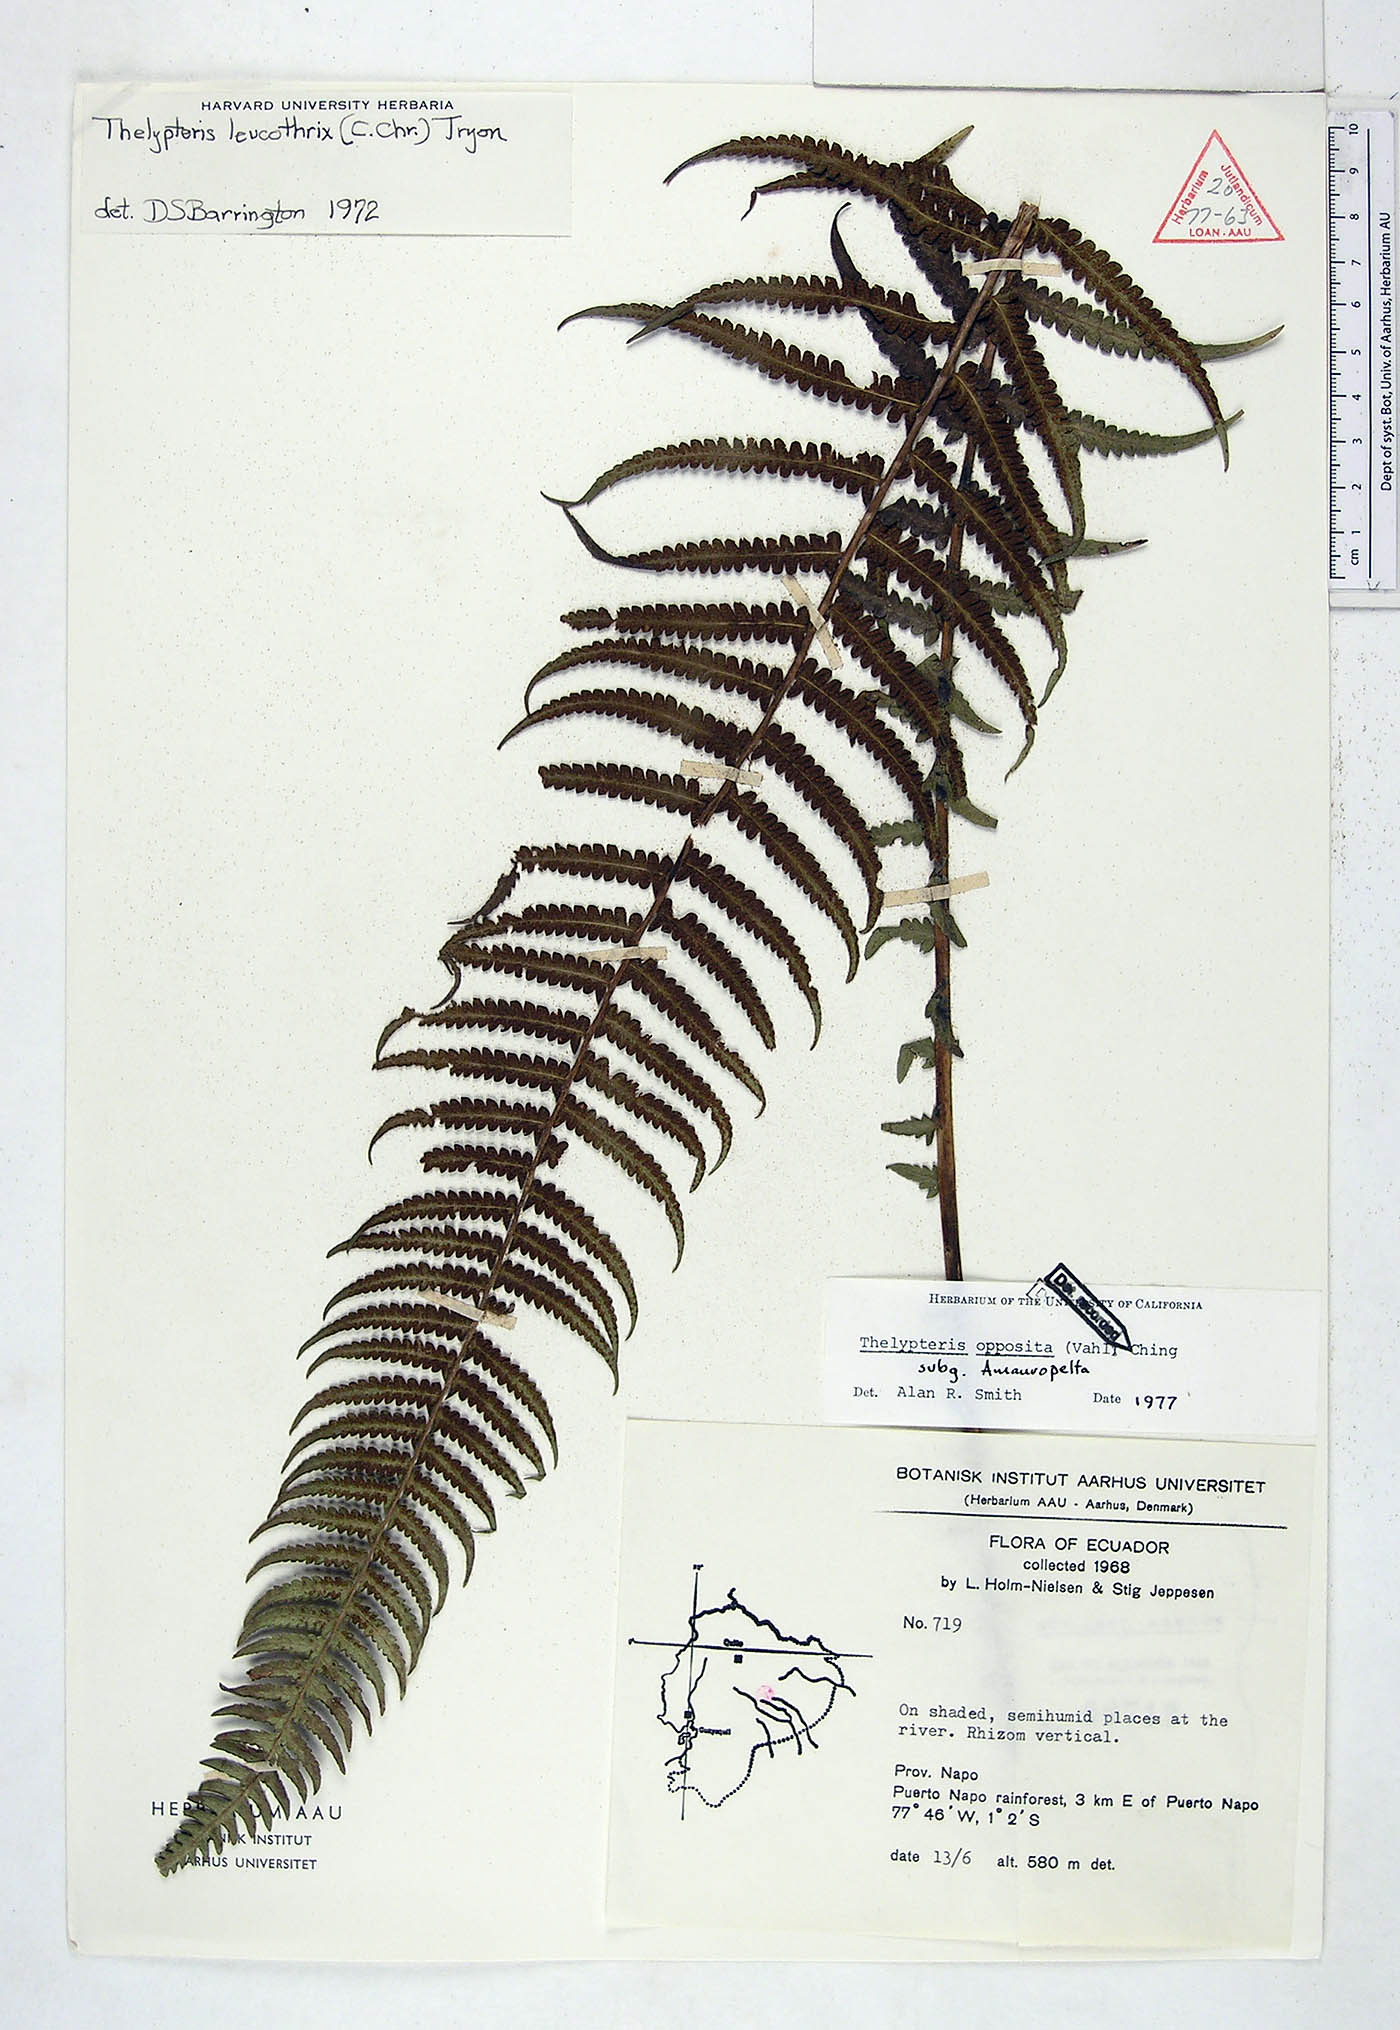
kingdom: Plantae
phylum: Tracheophyta
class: Polypodiopsida
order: Polypodiales
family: Thelypteridaceae
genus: Amauropelta
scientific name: Amauropelta opposita
